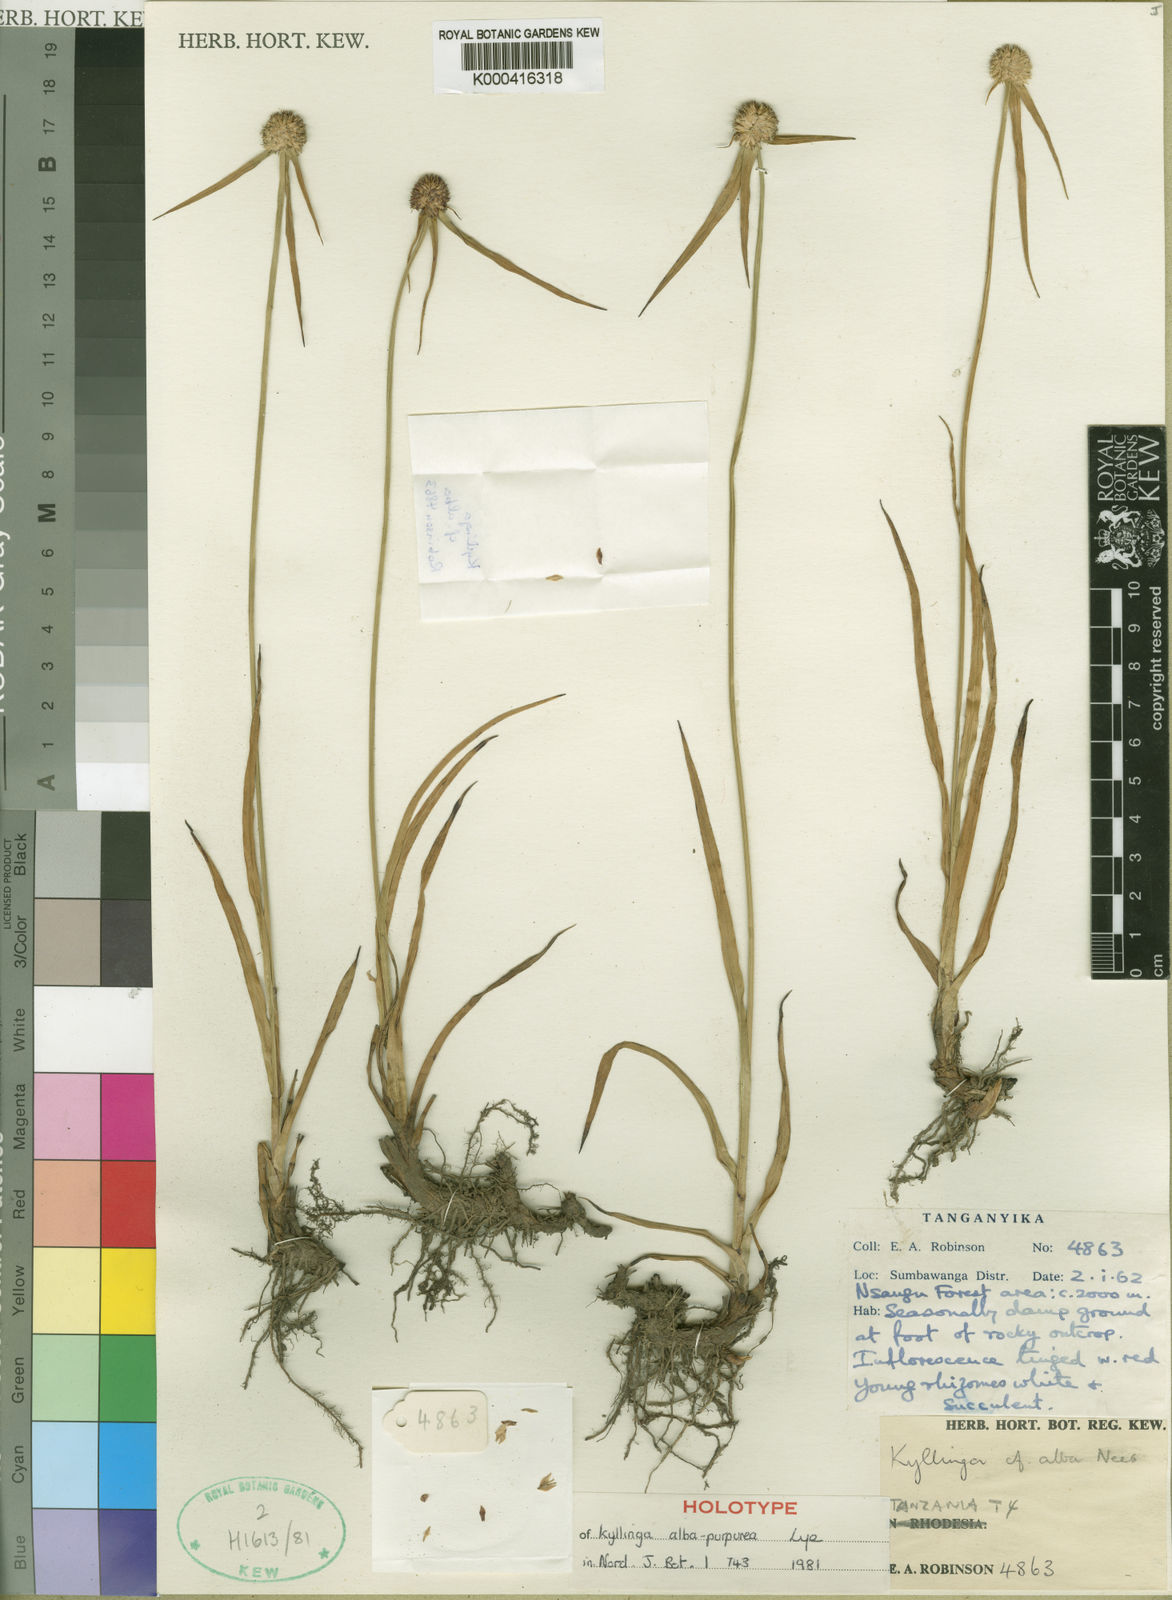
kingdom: Plantae
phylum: Tracheophyta
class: Liliopsida
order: Poales
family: Cyperaceae
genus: Cyperus
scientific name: Cyperus rukwanus
